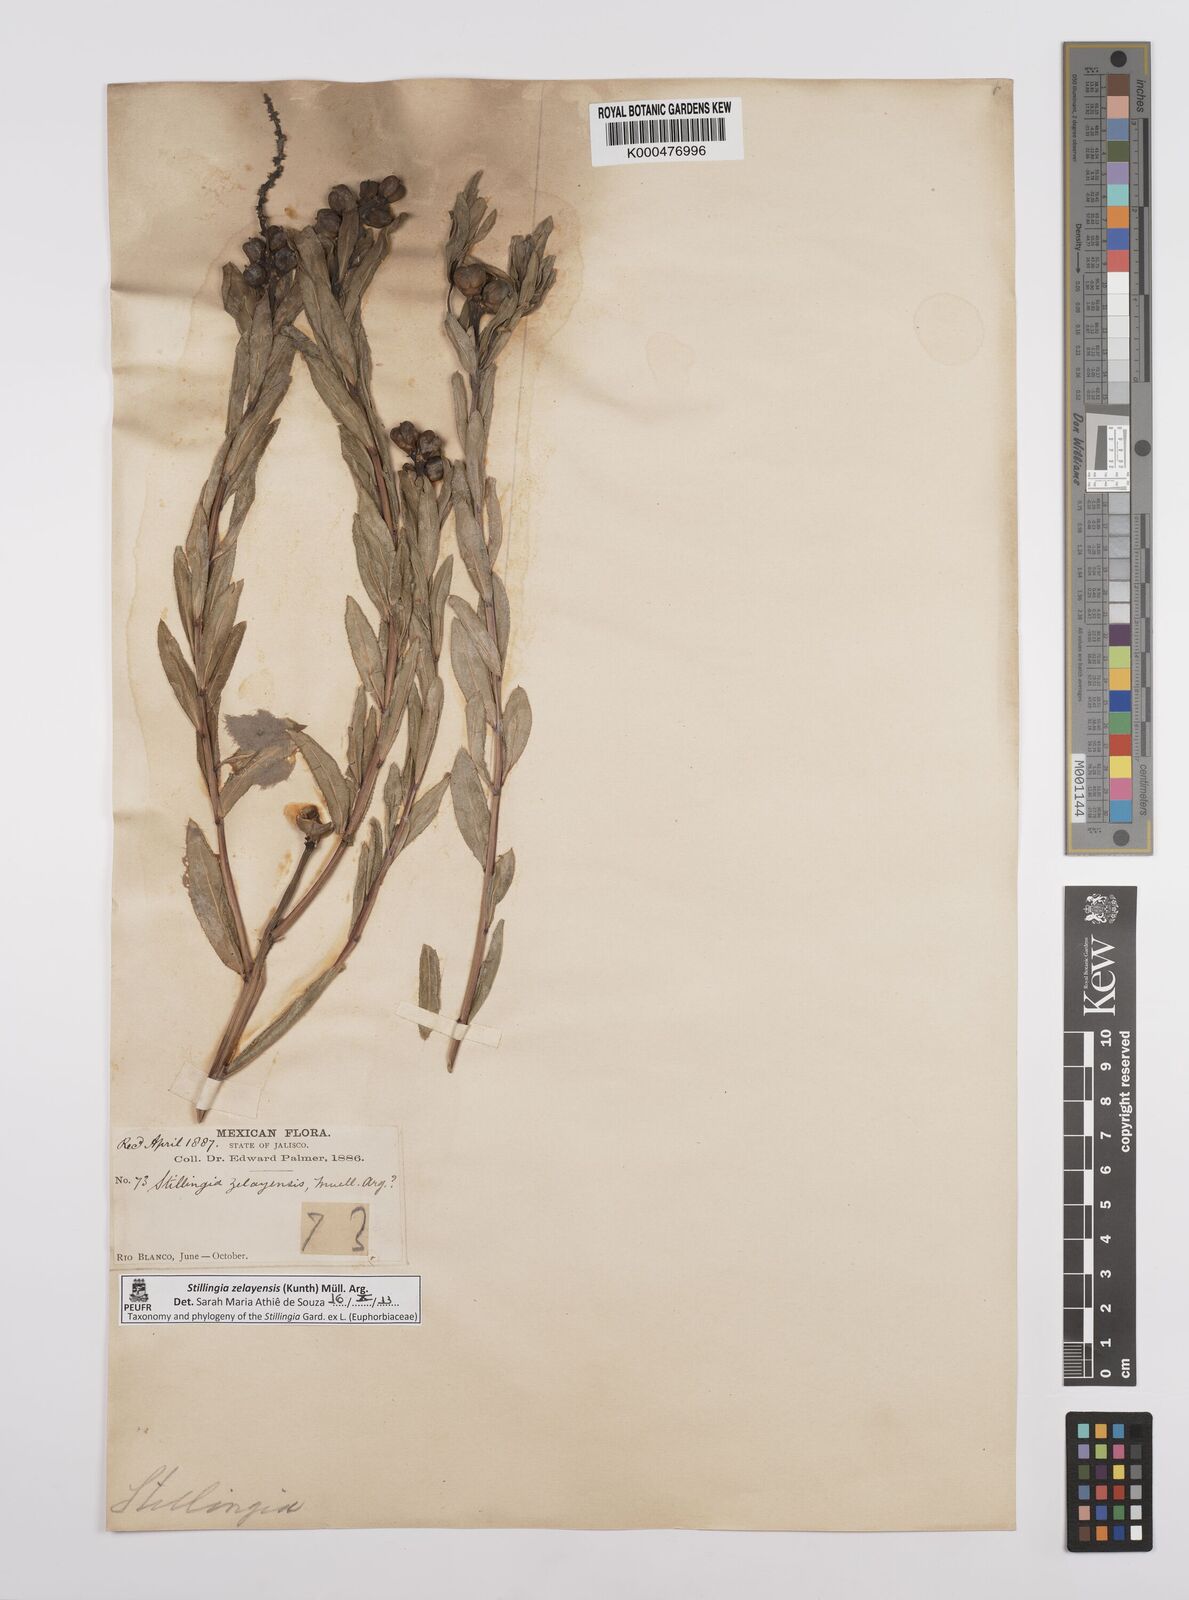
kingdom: Plantae
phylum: Tracheophyta
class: Magnoliopsida
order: Malpighiales
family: Euphorbiaceae
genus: Stillingia
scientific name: Stillingia
